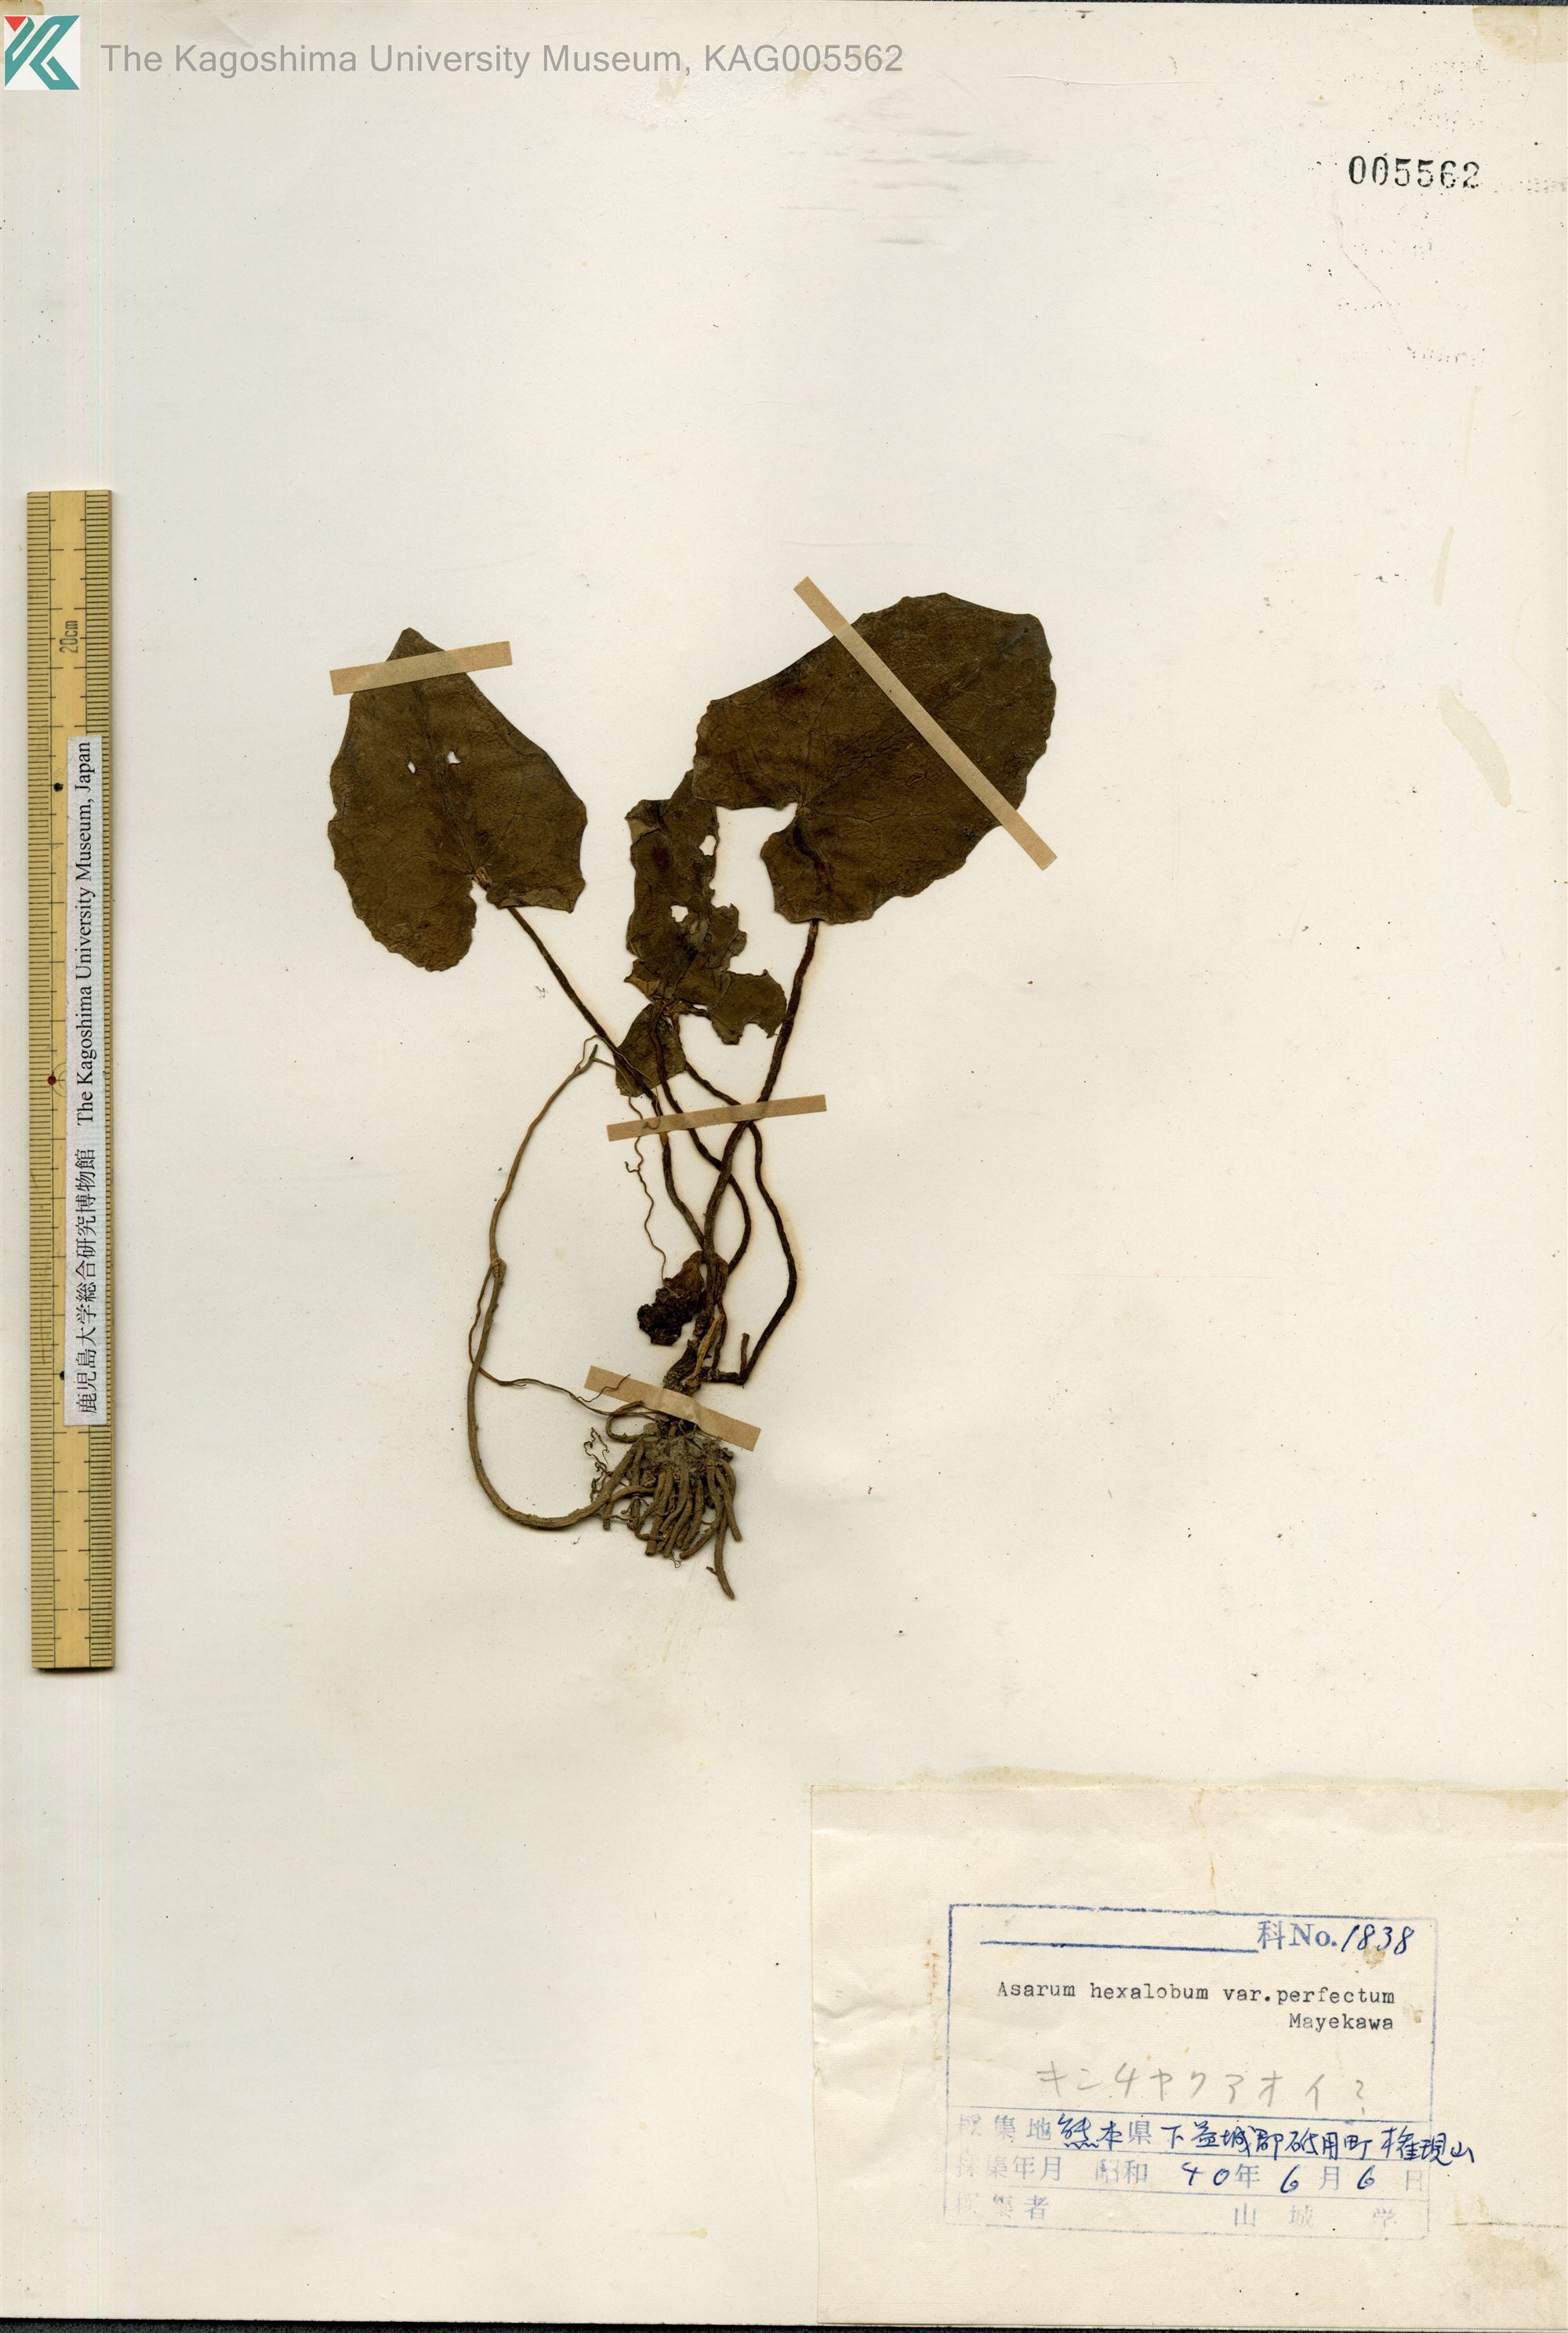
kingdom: Plantae
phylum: Tracheophyta
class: Magnoliopsida
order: Piperales
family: Aristolochiaceae
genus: Asarum
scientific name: Asarum hexalobum
